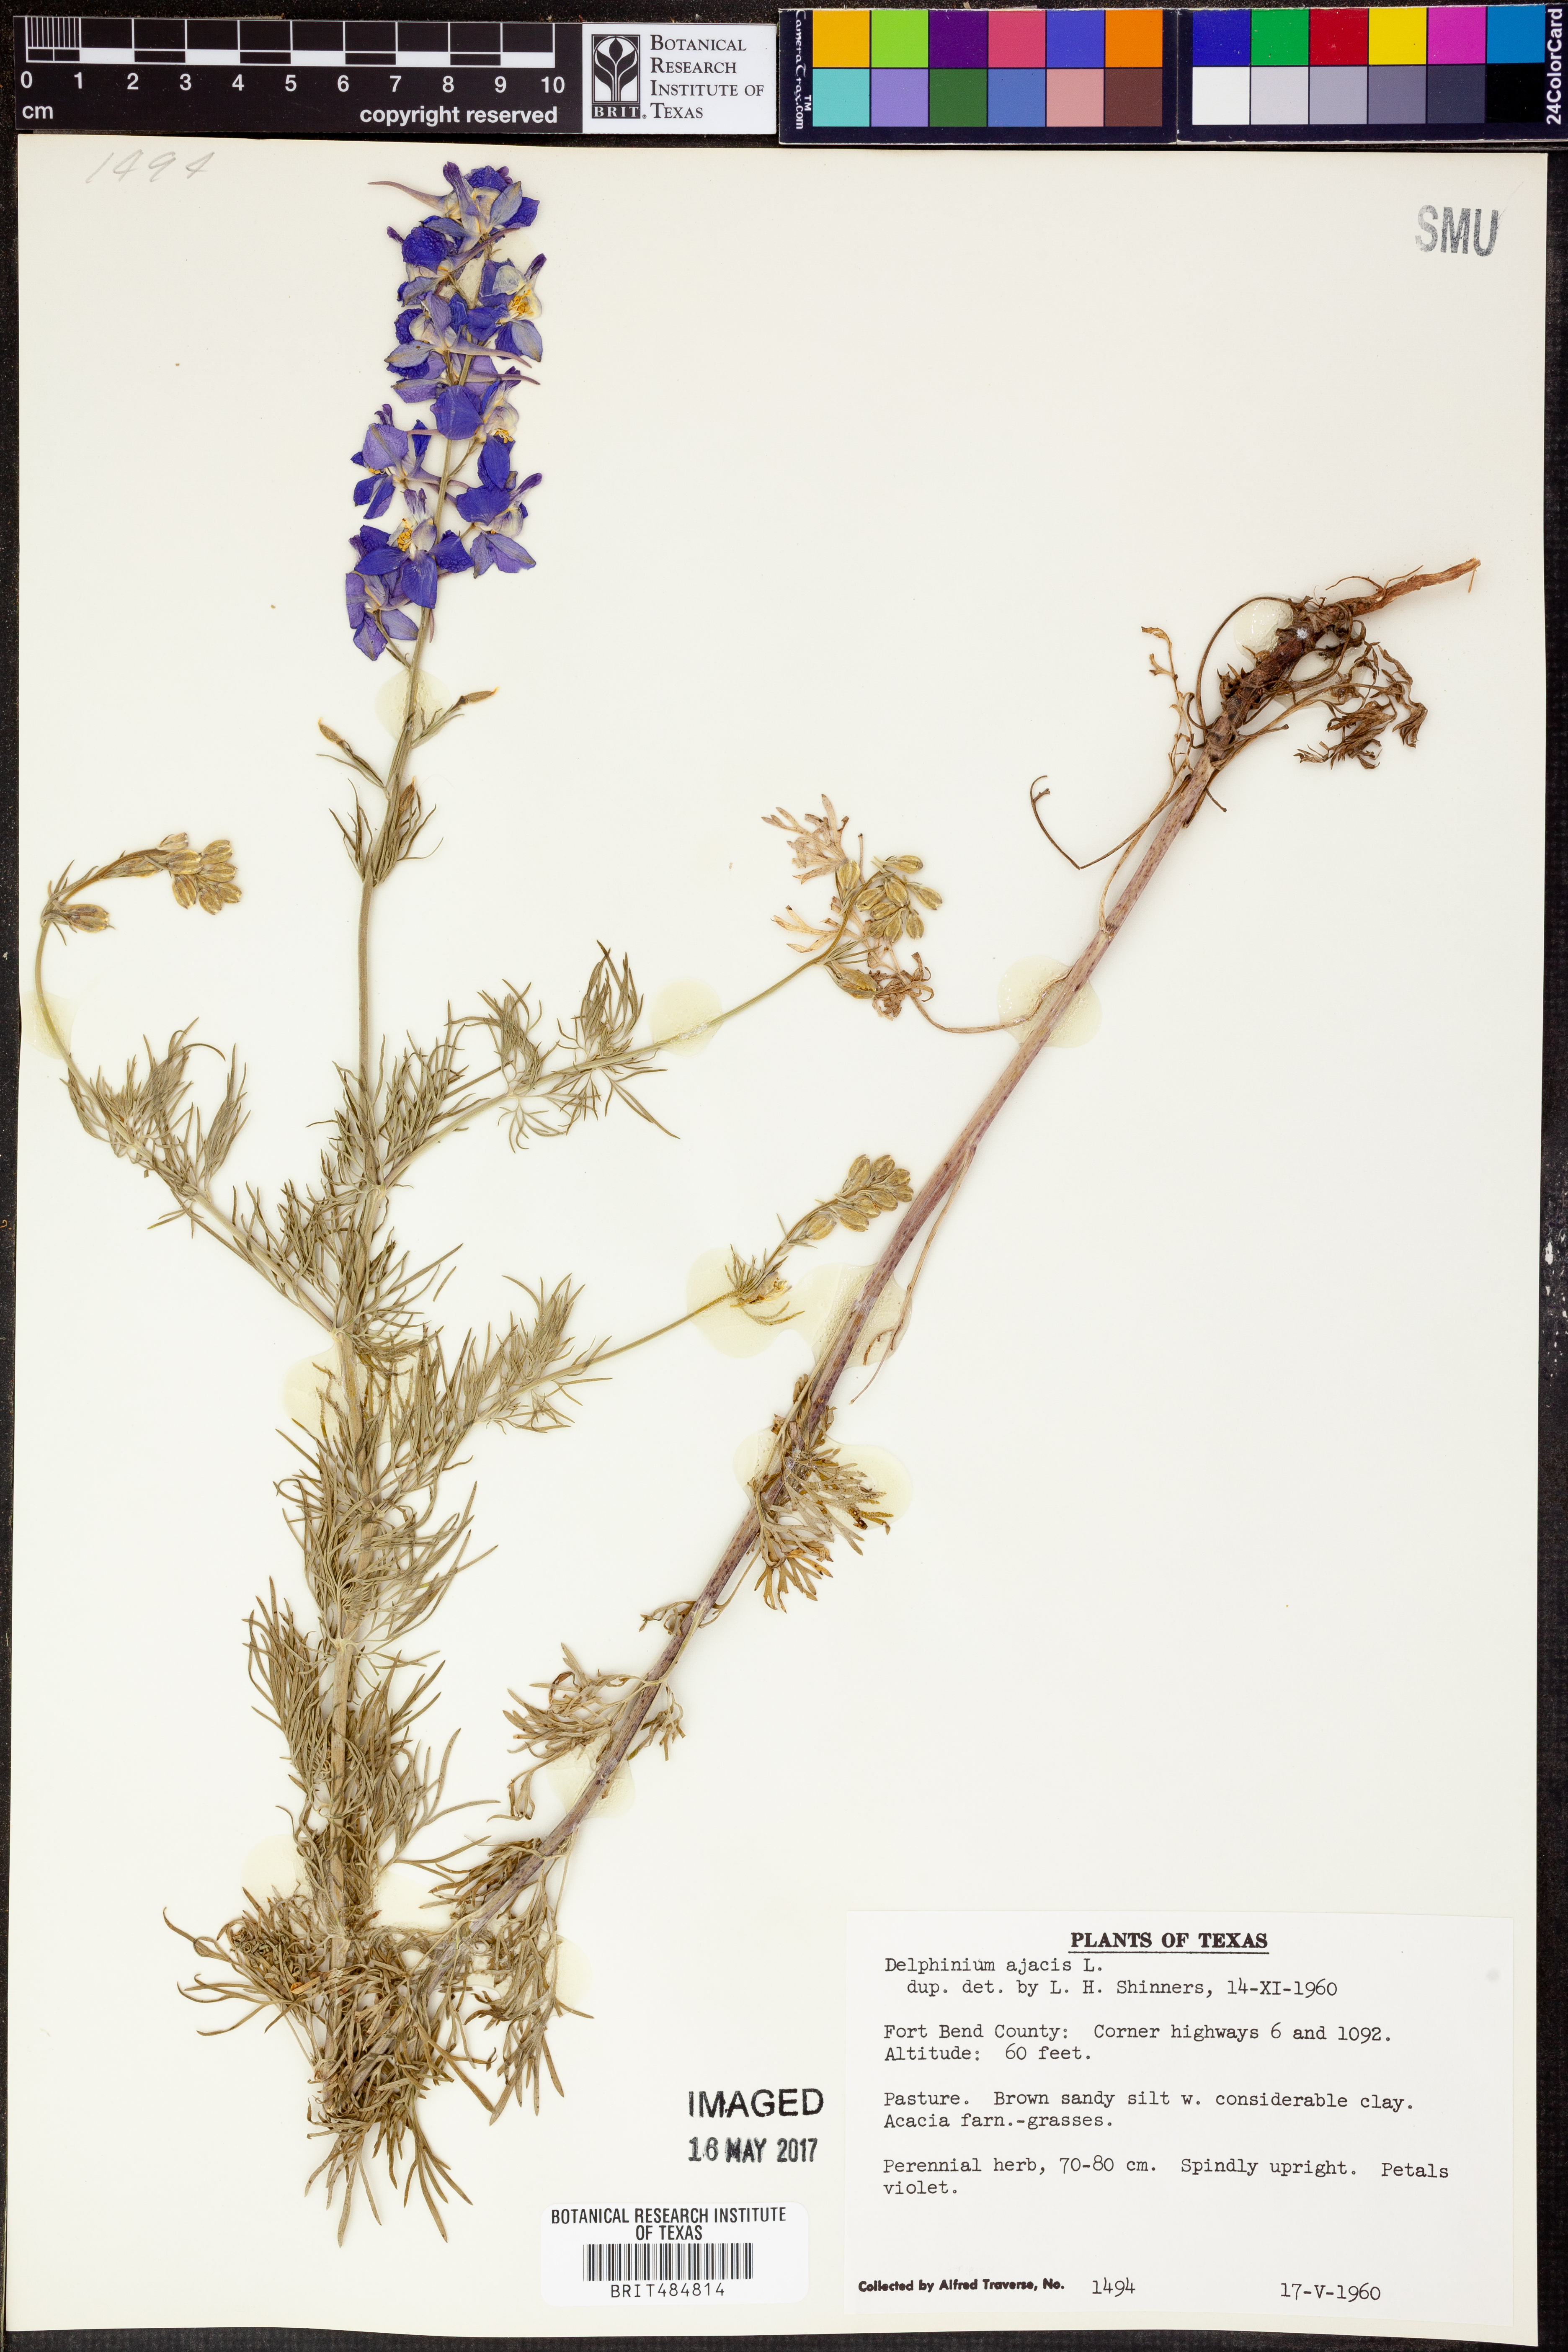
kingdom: Plantae
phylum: Tracheophyta
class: Magnoliopsida
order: Ranunculales
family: Ranunculaceae
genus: Delphinium
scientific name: Delphinium ajacis
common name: Doubtful knight's-spur
